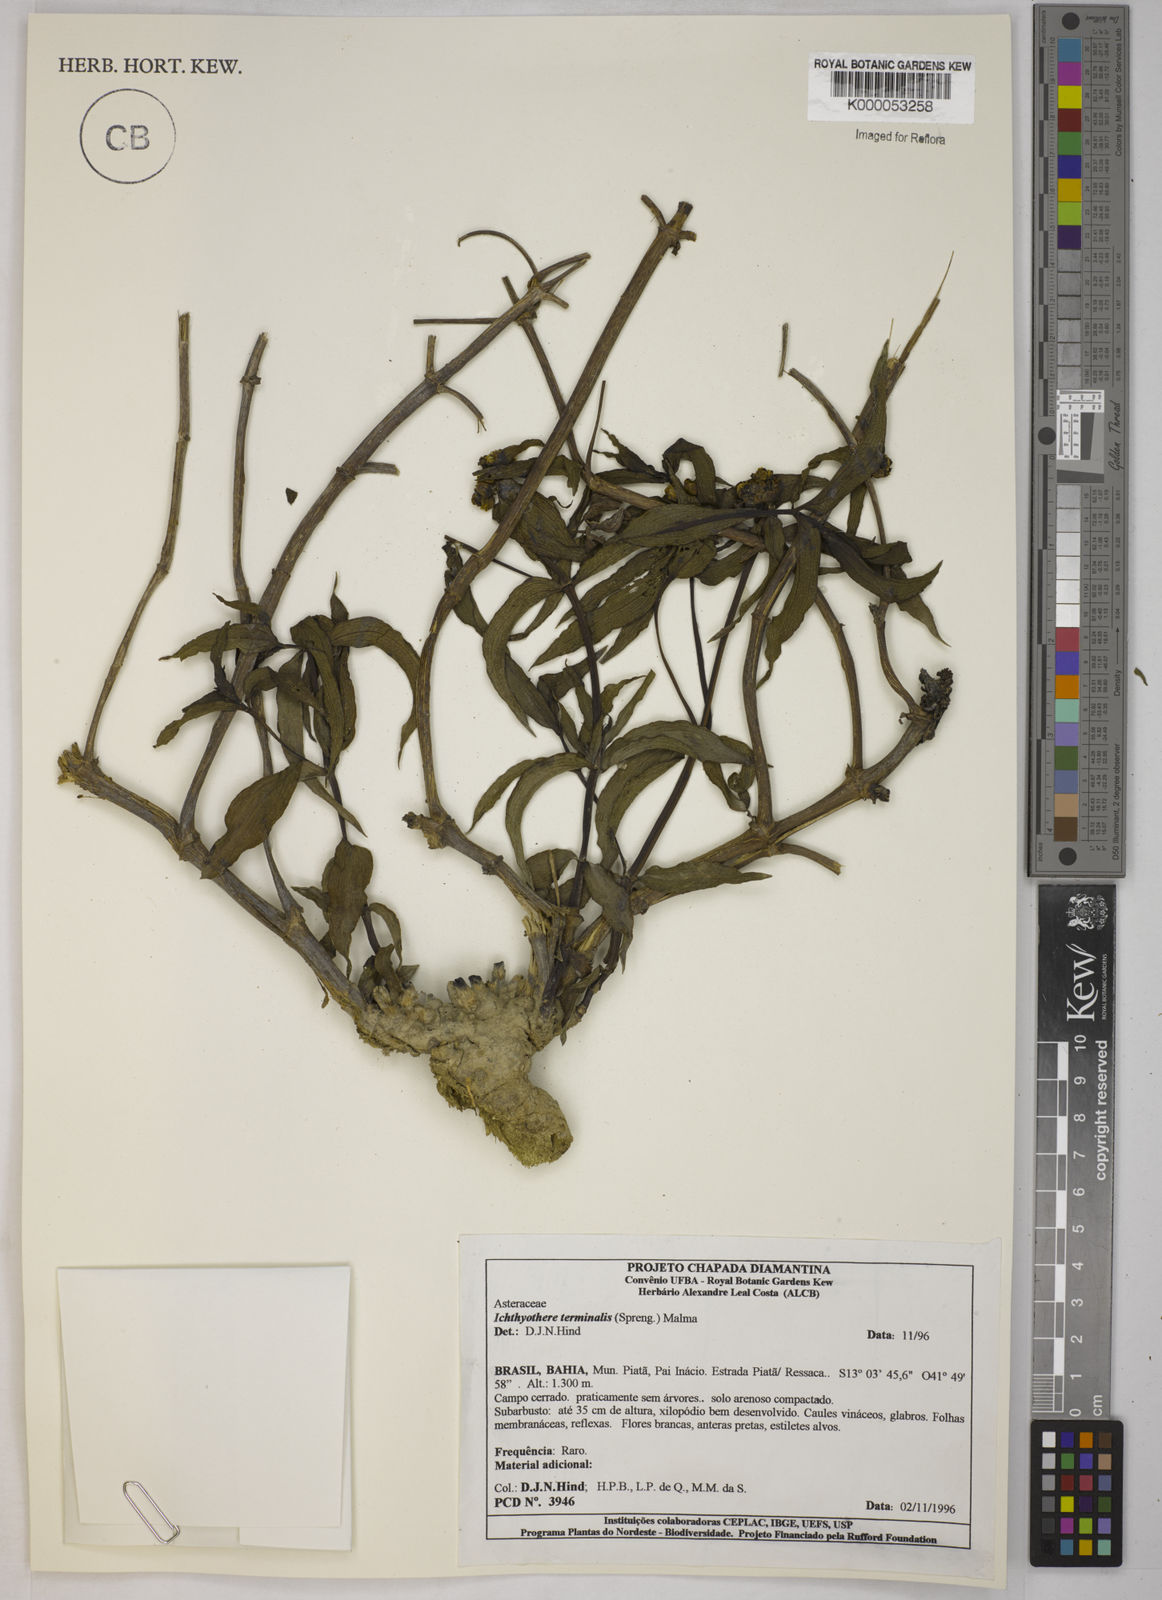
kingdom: Plantae
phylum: Tracheophyta
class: Magnoliopsida
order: Asterales
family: Asteraceae
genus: Ichthyothere
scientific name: Ichthyothere terminalis
